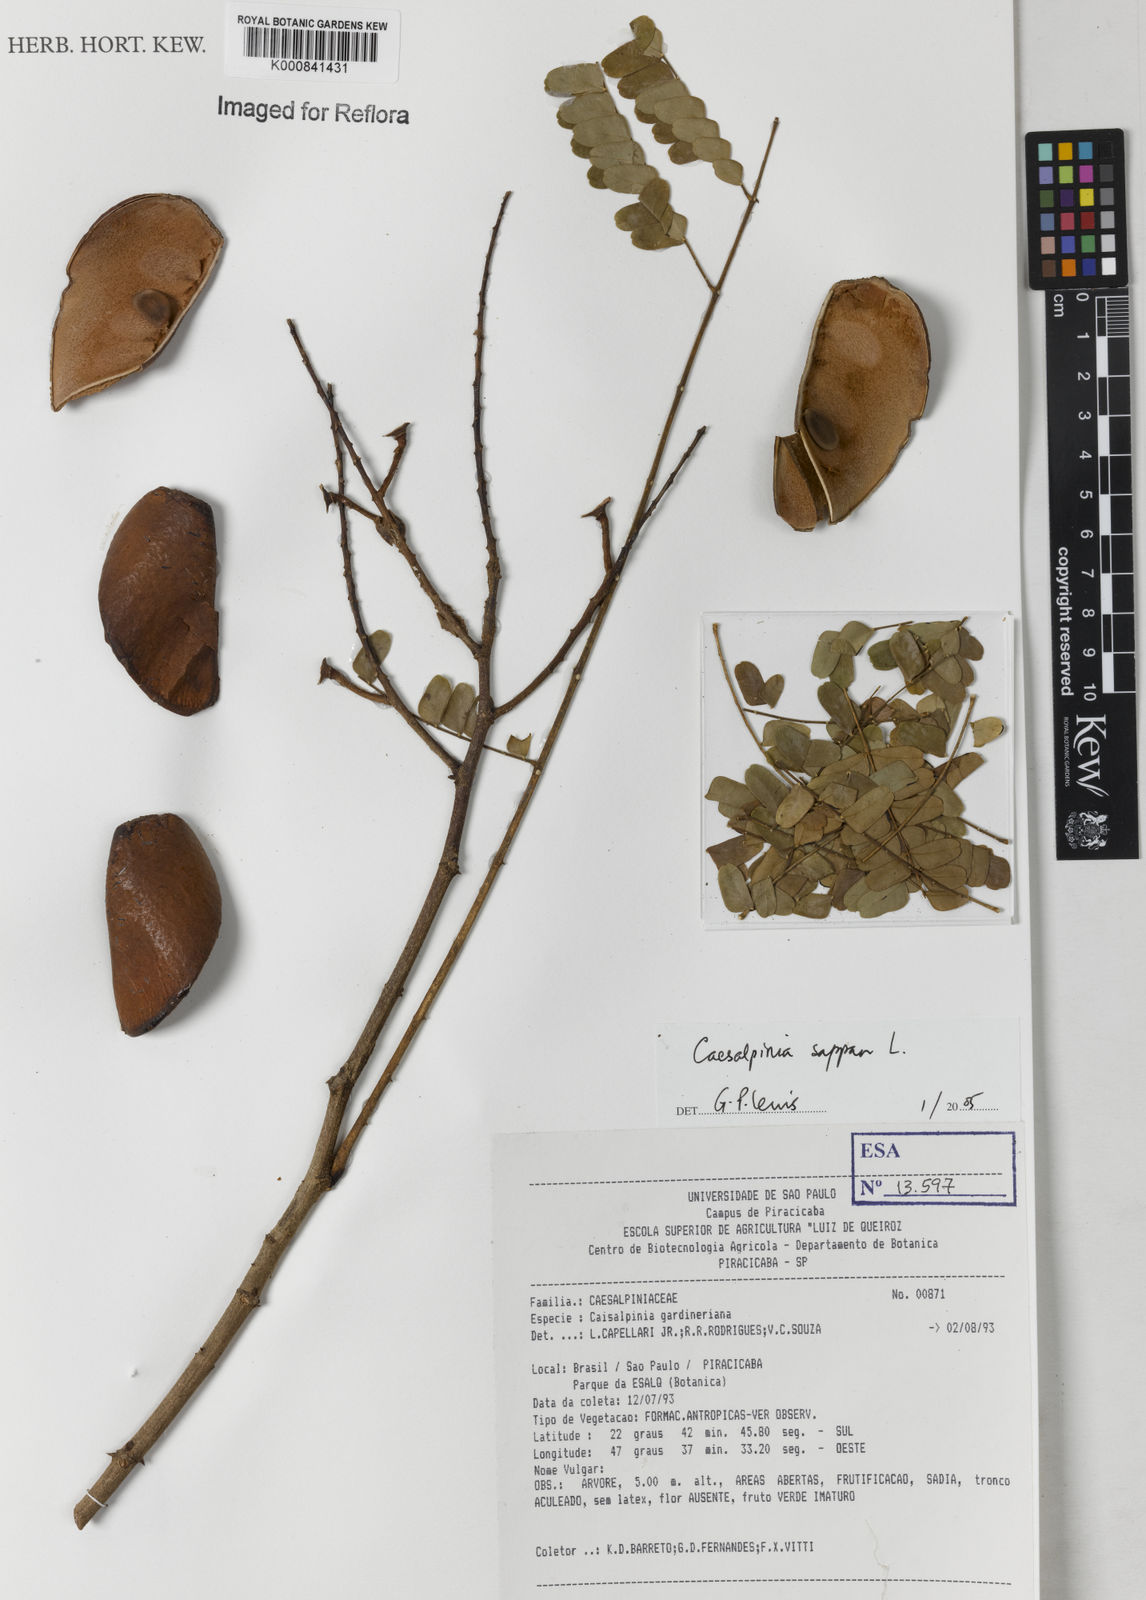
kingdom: Plantae
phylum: Tracheophyta
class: Magnoliopsida
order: Fabales
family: Fabaceae
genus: Biancaea
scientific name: Biancaea sappan
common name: Sappan
